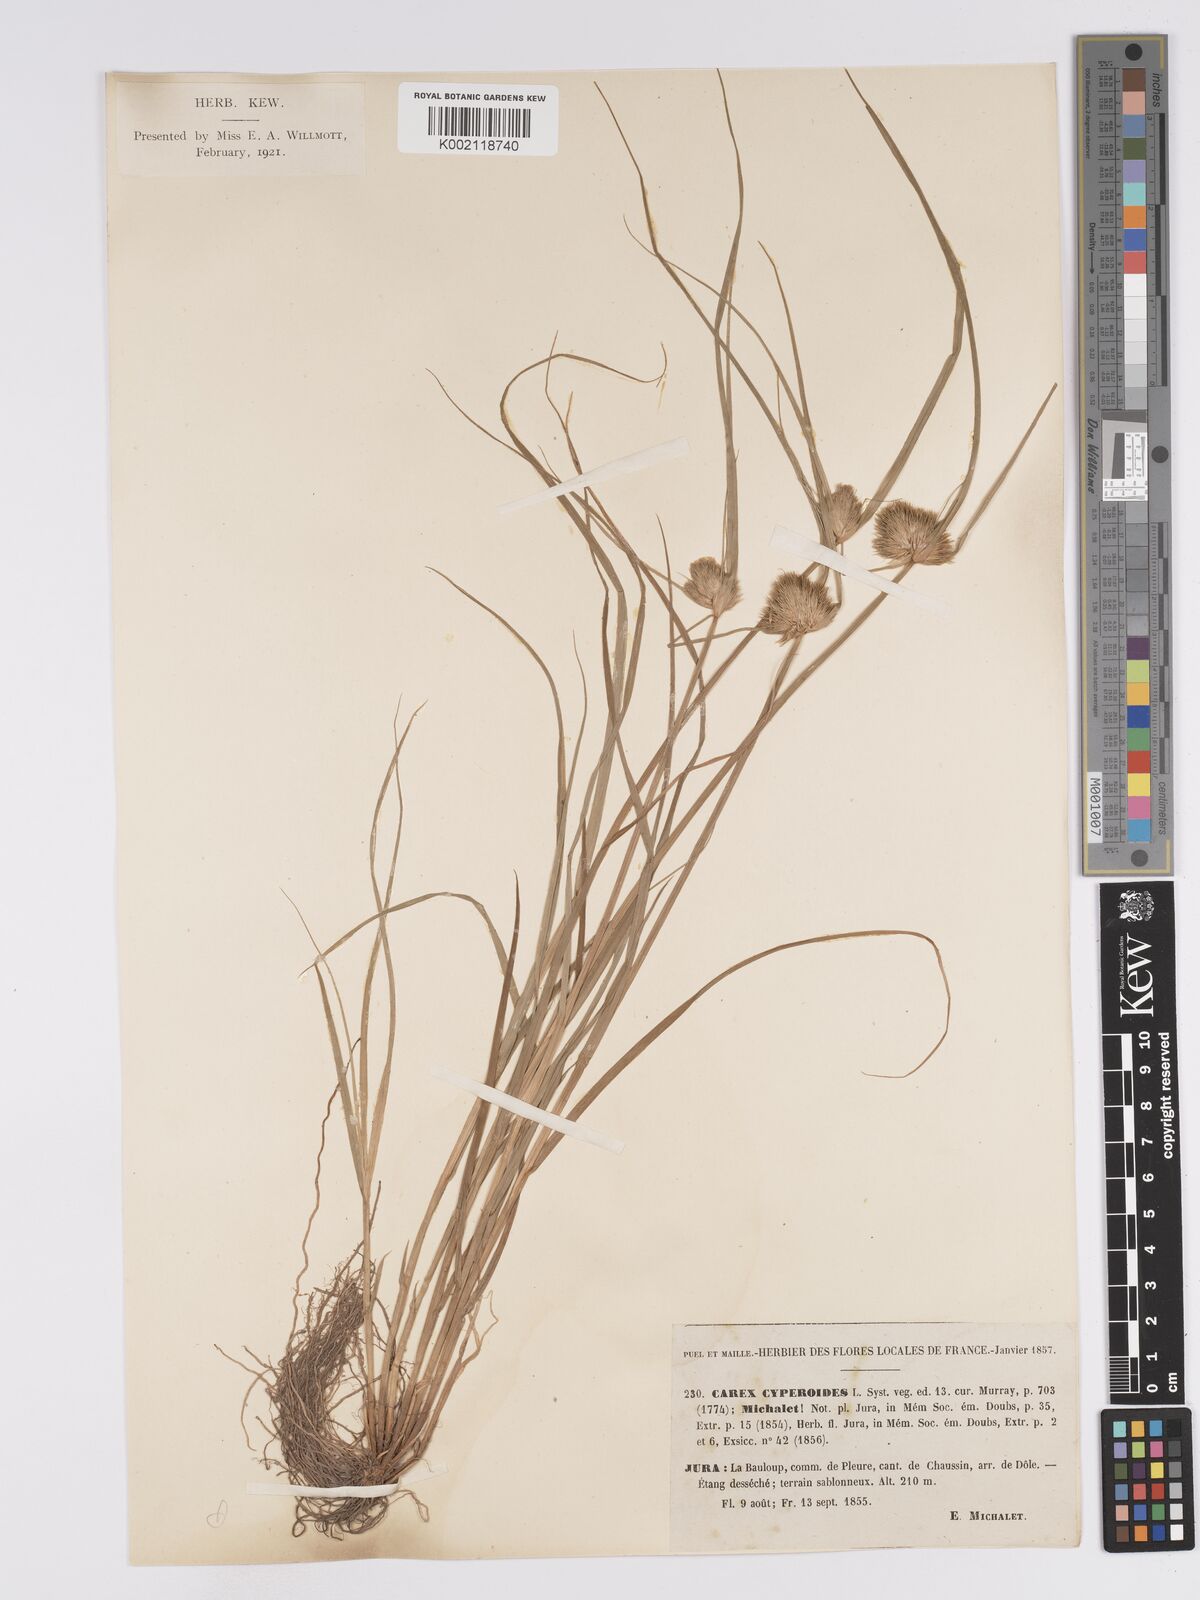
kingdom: Plantae
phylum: Tracheophyta
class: Liliopsida
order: Poales
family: Cyperaceae
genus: Carex
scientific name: Carex bohemica
